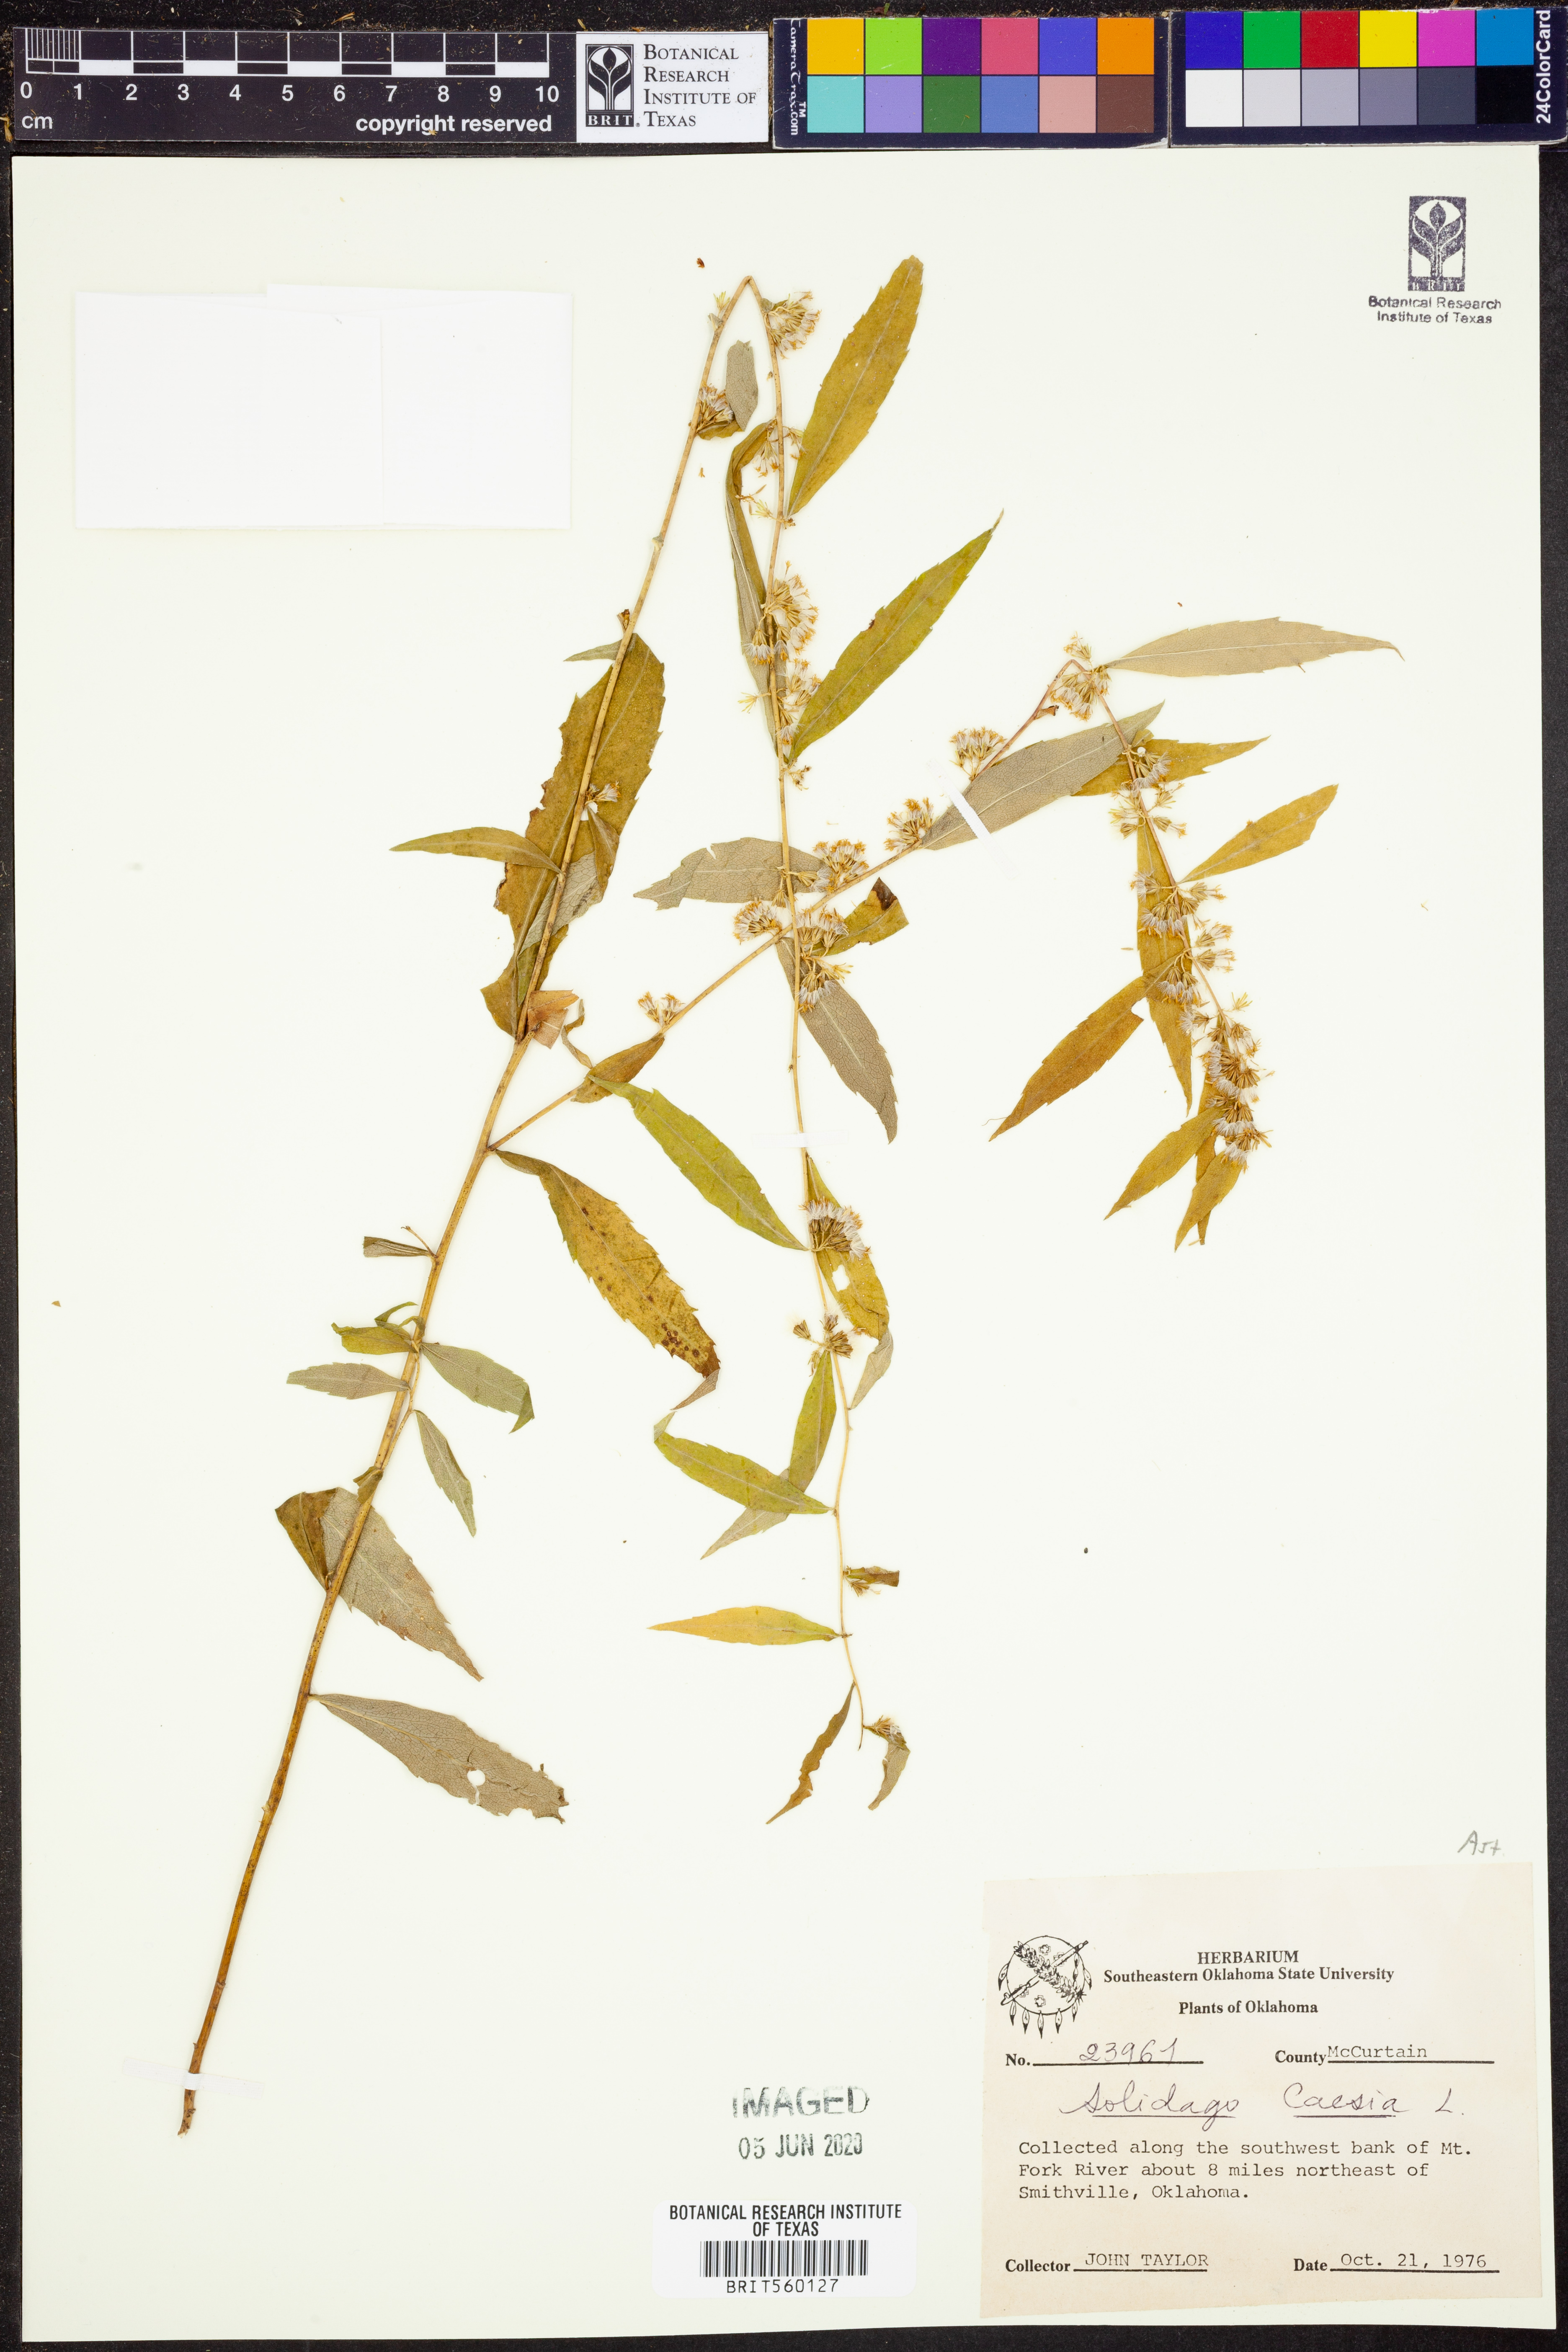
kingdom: Plantae
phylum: Tracheophyta
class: Magnoliopsida
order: Asterales
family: Asteraceae
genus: Solidago
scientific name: Solidago caesia
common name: Woodland goldenrod
